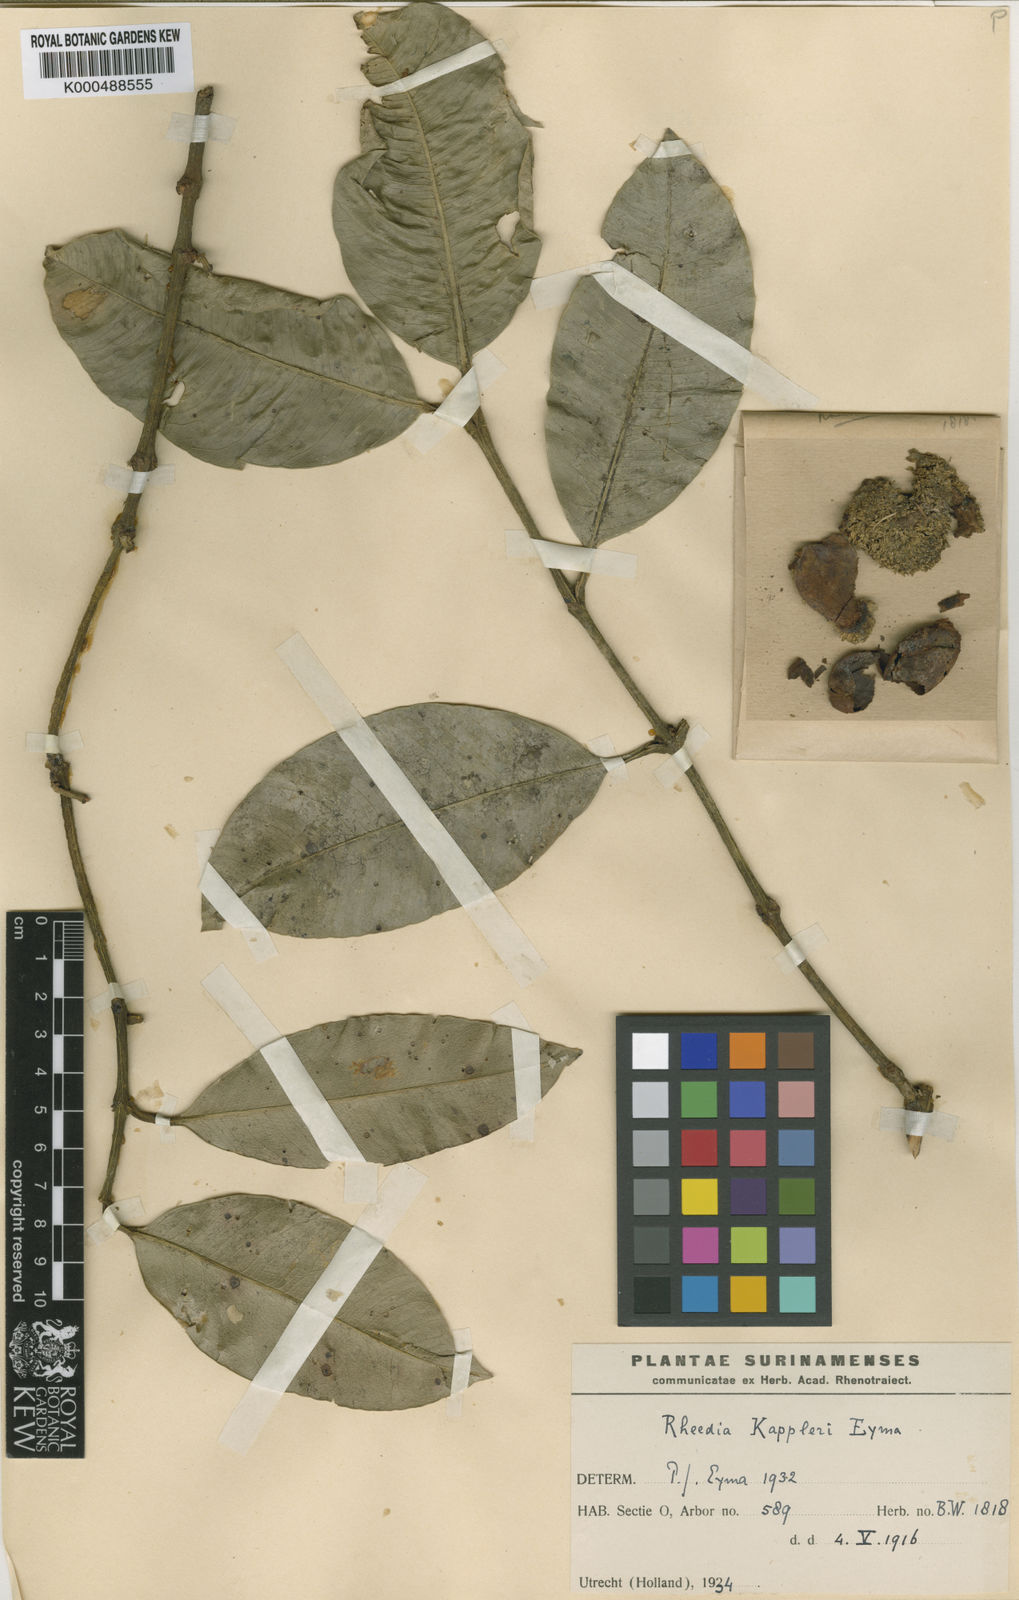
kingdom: Plantae
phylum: Tracheophyta
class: Magnoliopsida
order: Malpighiales
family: Clusiaceae
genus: Garcinia
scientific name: Garcinia
